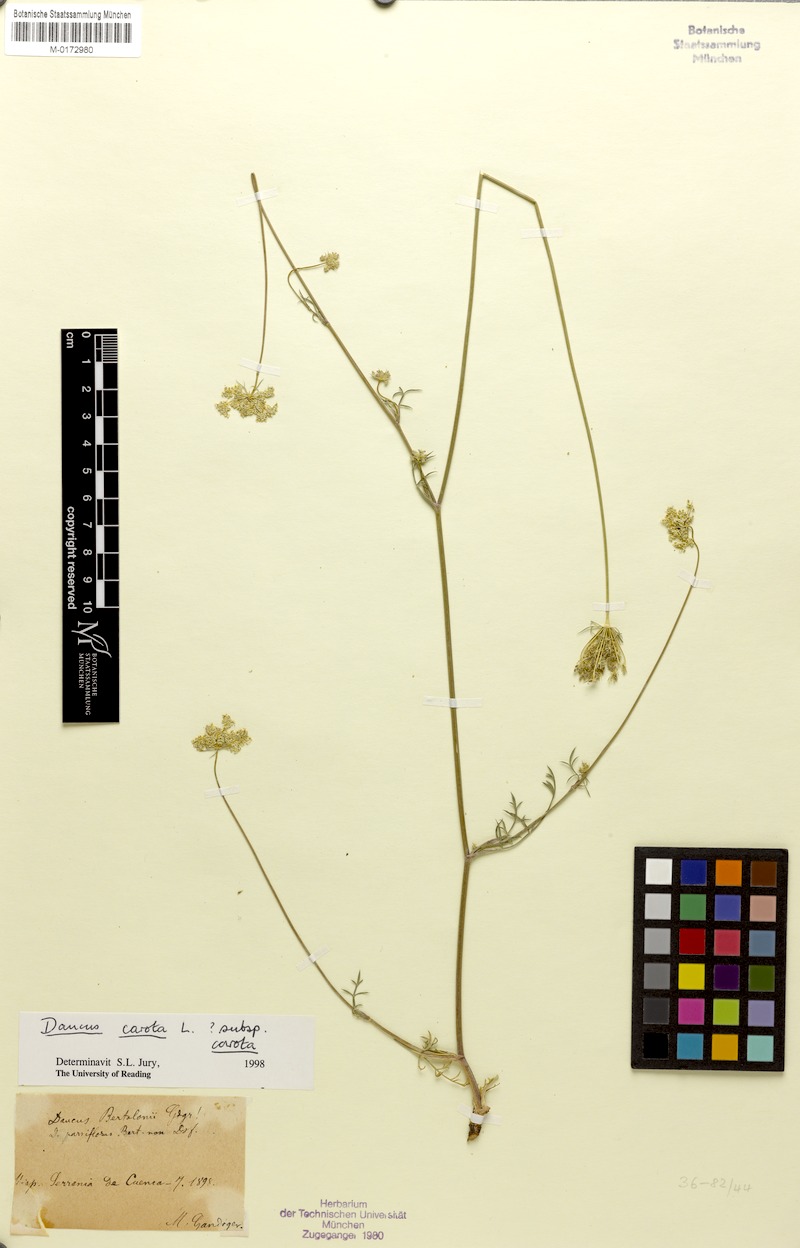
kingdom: Plantae
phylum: Tracheophyta
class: Magnoliopsida
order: Apiales
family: Apiaceae
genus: Daucus
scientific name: Daucus carota
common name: Wild carrot
